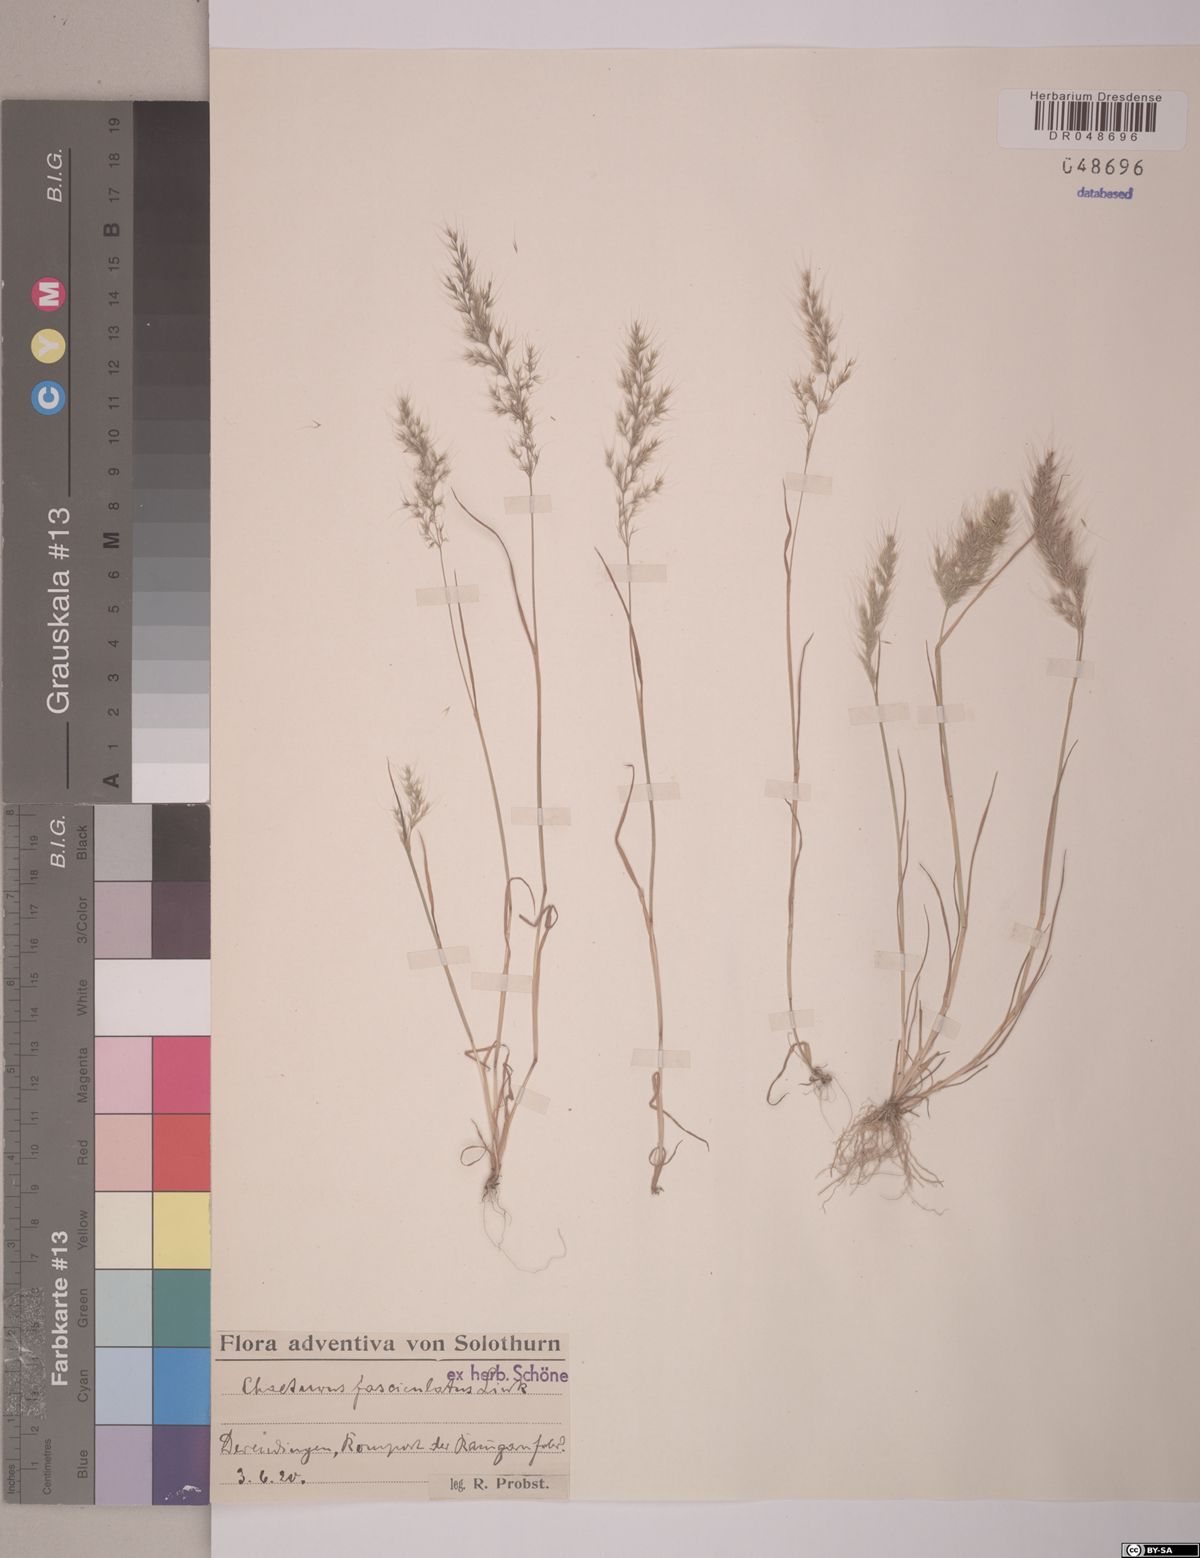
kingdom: Plantae
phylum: Tracheophyta
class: Liliopsida
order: Poales
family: Poaceae
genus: Agrostis
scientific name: Agrostis subspicata
